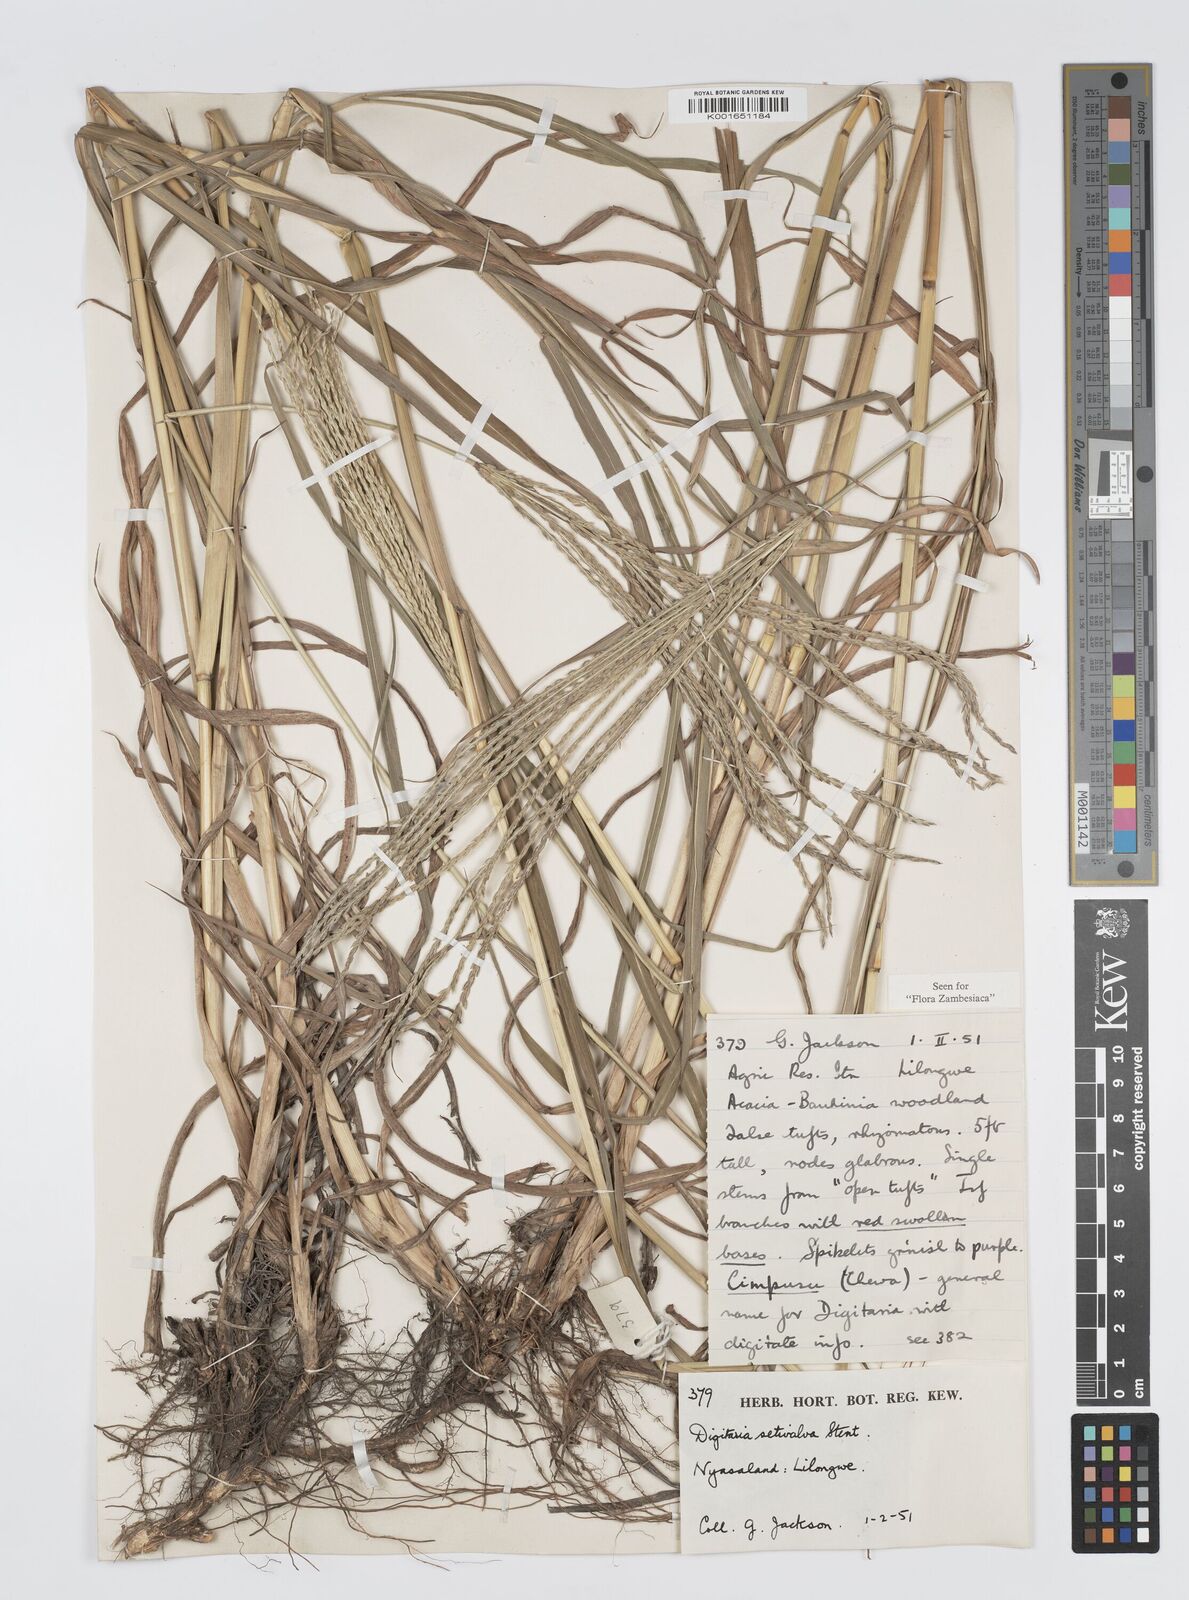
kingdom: Plantae
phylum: Tracheophyta
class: Liliopsida
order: Poales
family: Poaceae
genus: Digitaria
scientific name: Digitaria milanjiana
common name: Madagascar crabgrass
